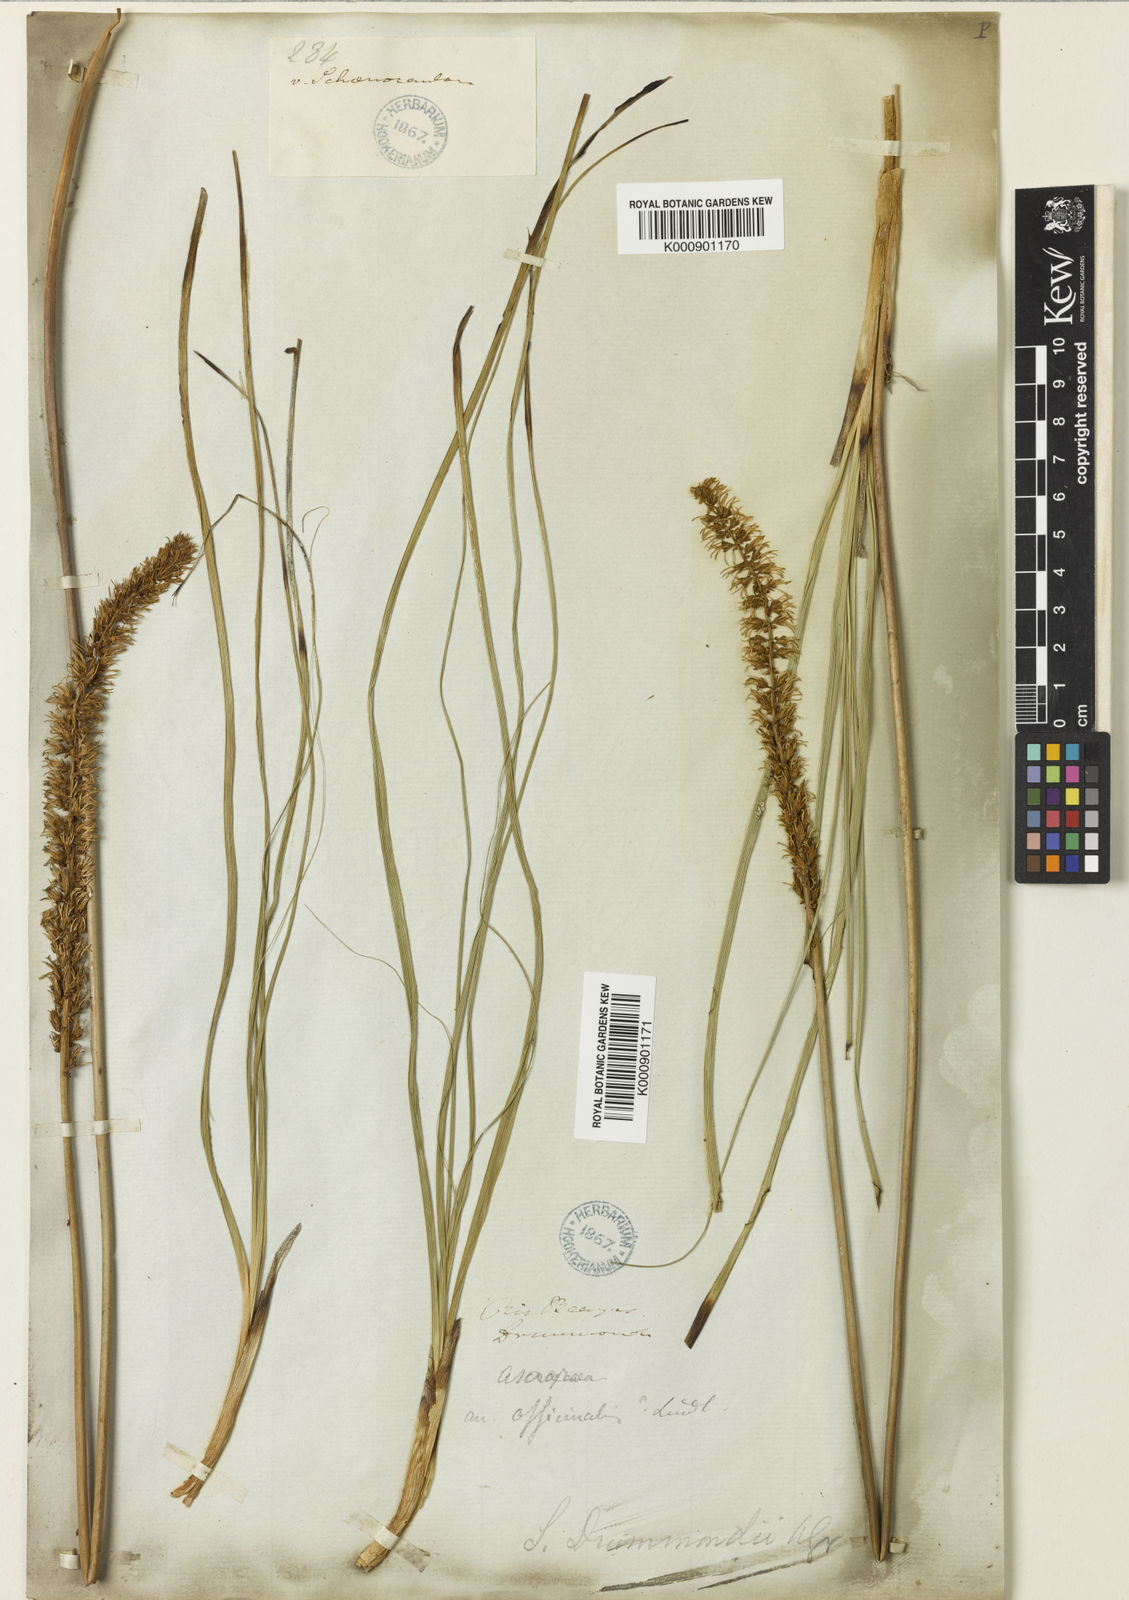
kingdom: Plantae
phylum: Tracheophyta
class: Liliopsida
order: Liliales
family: Melanthiaceae
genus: Schoenocaulon
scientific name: Schoenocaulon texanum
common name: Texas feather-shank
